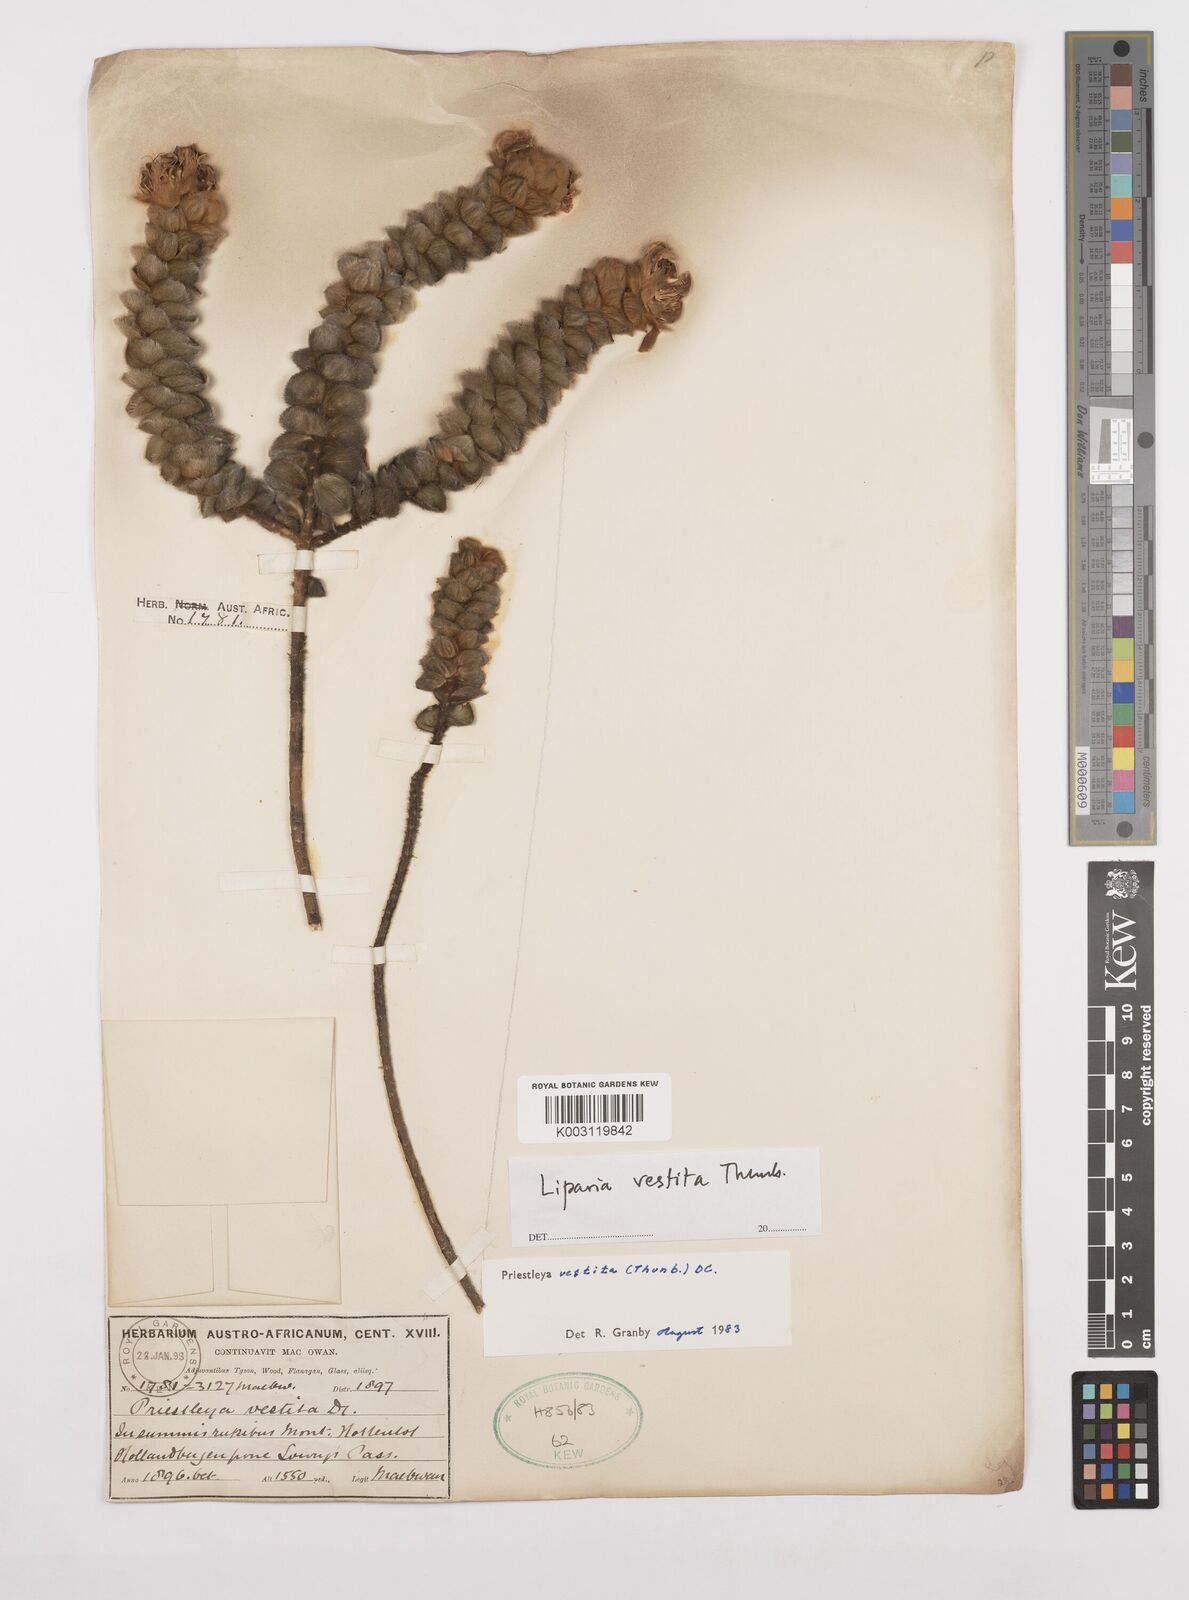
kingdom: Plantae
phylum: Tracheophyta
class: Magnoliopsida
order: Fabales
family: Fabaceae
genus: Liparia
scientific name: Liparia vestita
